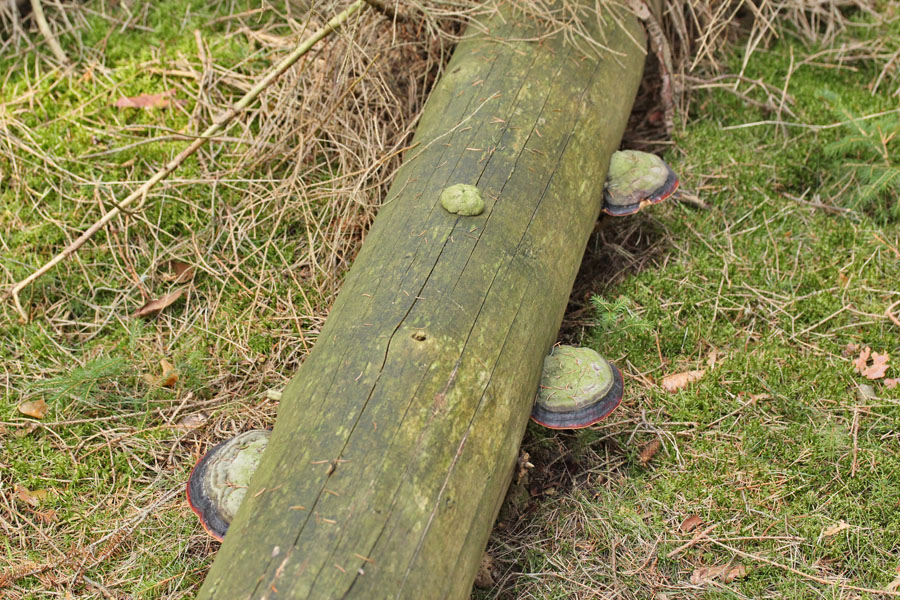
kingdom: Fungi
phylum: Basidiomycota
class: Agaricomycetes
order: Polyporales
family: Fomitopsidaceae
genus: Fomitopsis
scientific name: Fomitopsis pinicola
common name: randbæltet hovporesvamp
